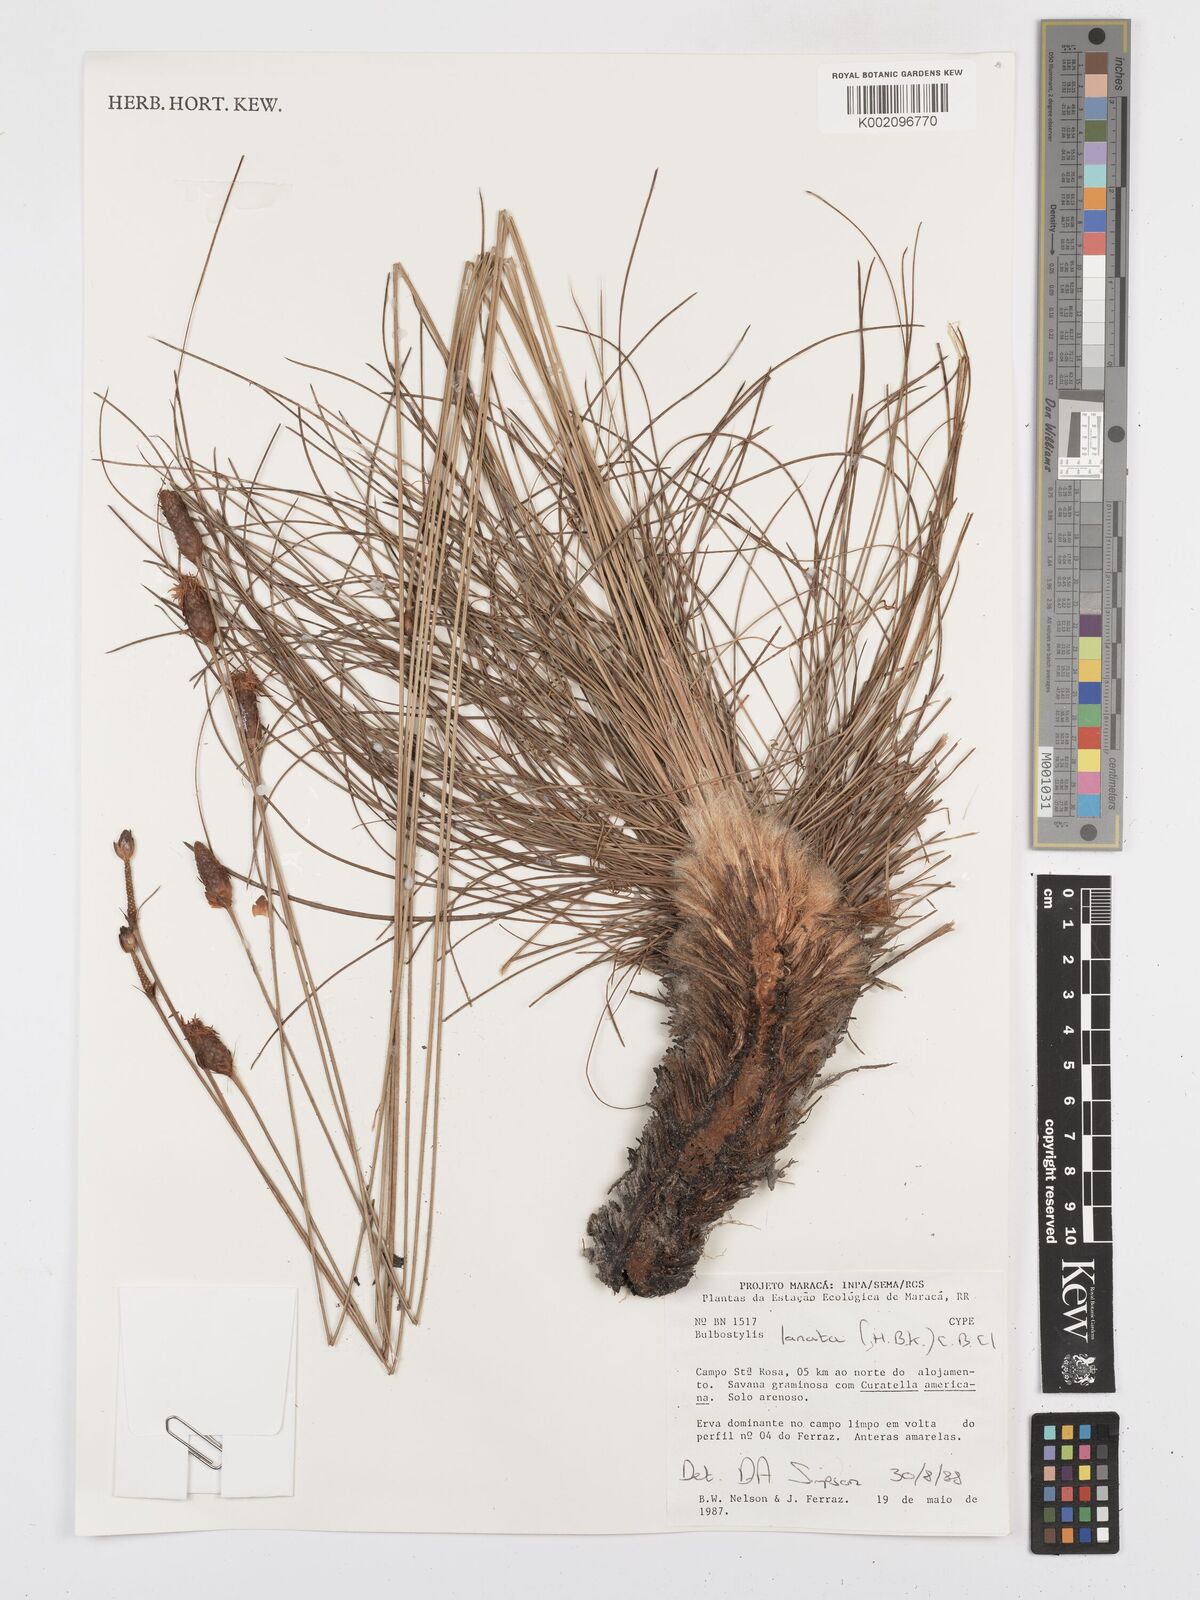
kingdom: Plantae
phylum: Tracheophyta
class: Liliopsida
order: Poales
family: Cyperaceae
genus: Bulbostylis
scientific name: Bulbostylis lanata
